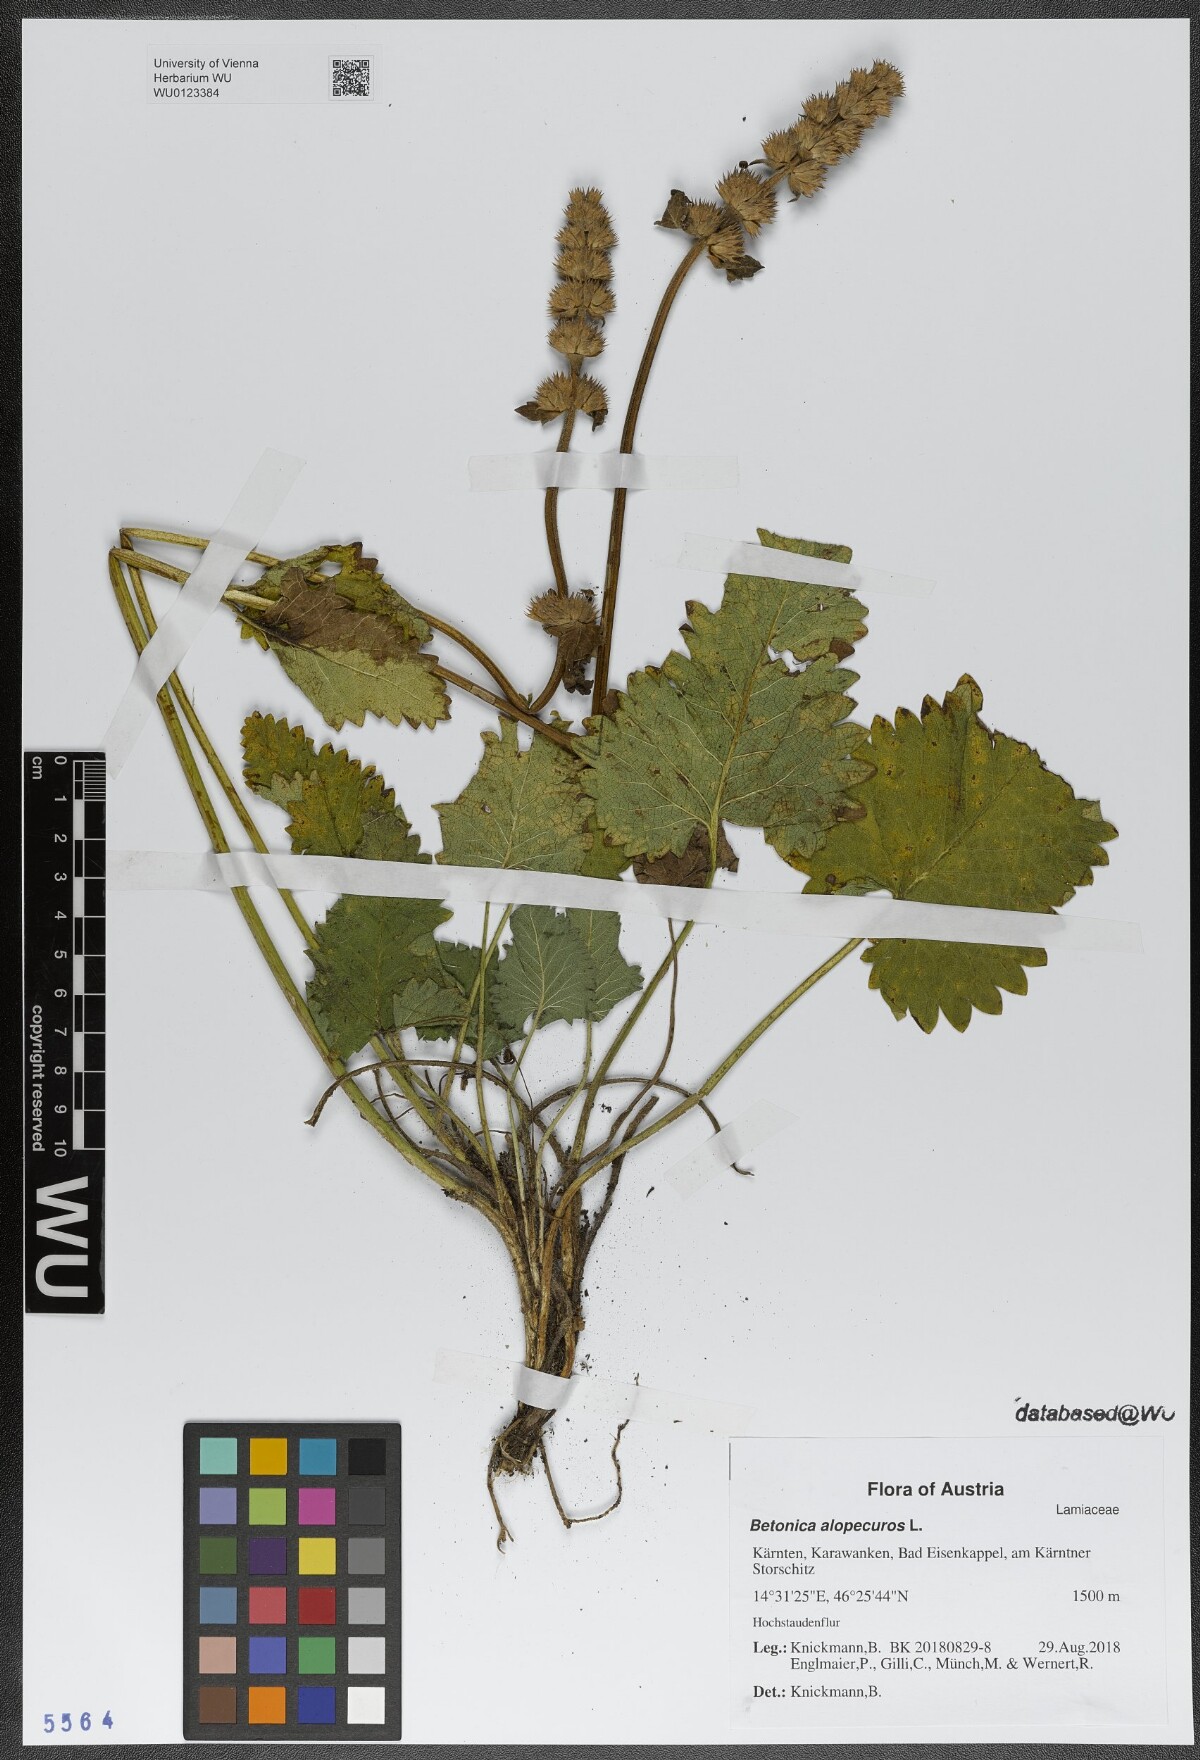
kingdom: Plantae
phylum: Tracheophyta
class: Magnoliopsida
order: Lamiales
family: Lamiaceae
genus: Betonica
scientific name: Betonica alopecuros
